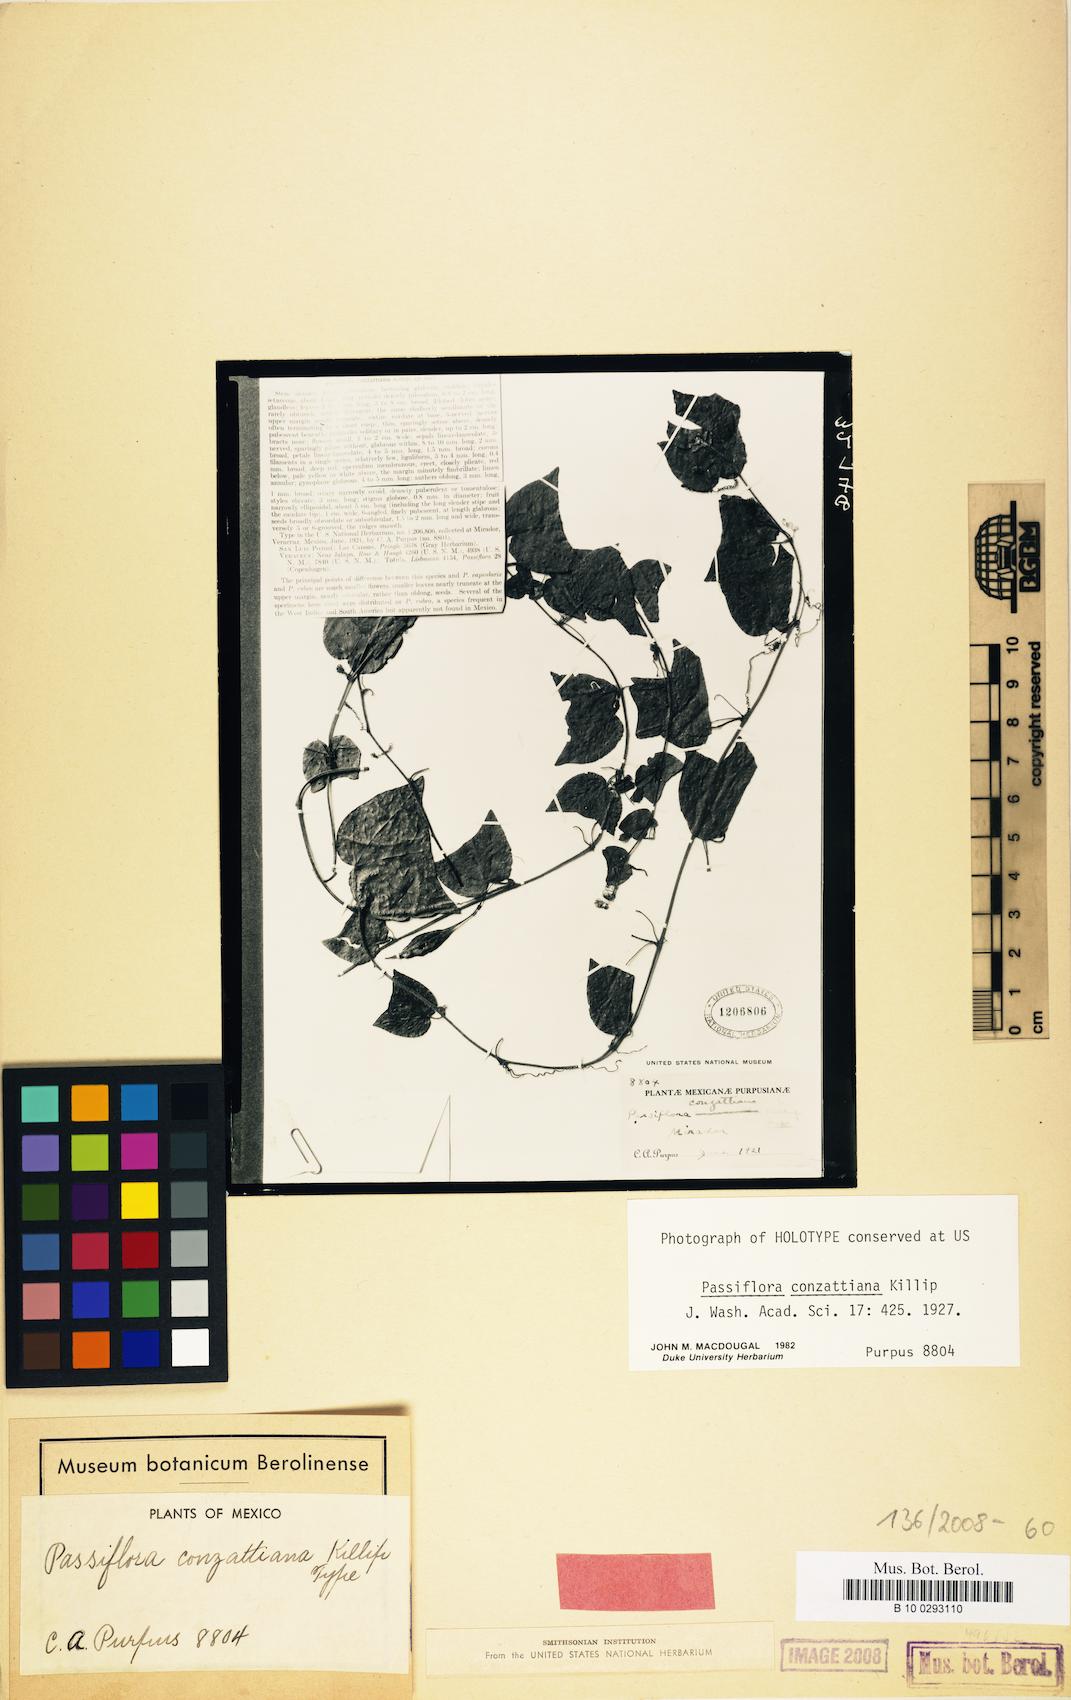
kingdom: Plantae
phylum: Tracheophyta
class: Magnoliopsida
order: Malpighiales
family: Passifloraceae
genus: Passiflora
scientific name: Passiflora conzattiana
